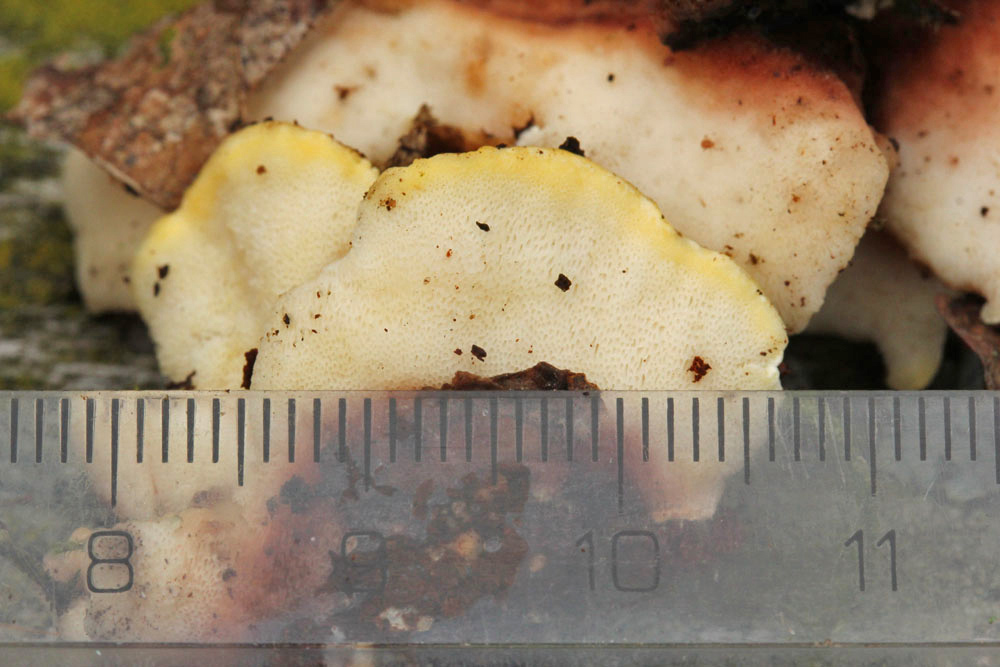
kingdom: Fungi
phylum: Basidiomycota
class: Agaricomycetes
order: Polyporales
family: Steccherinaceae
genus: Antrodiella
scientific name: Antrodiella serpula
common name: gulrandet elastikporesvamp
